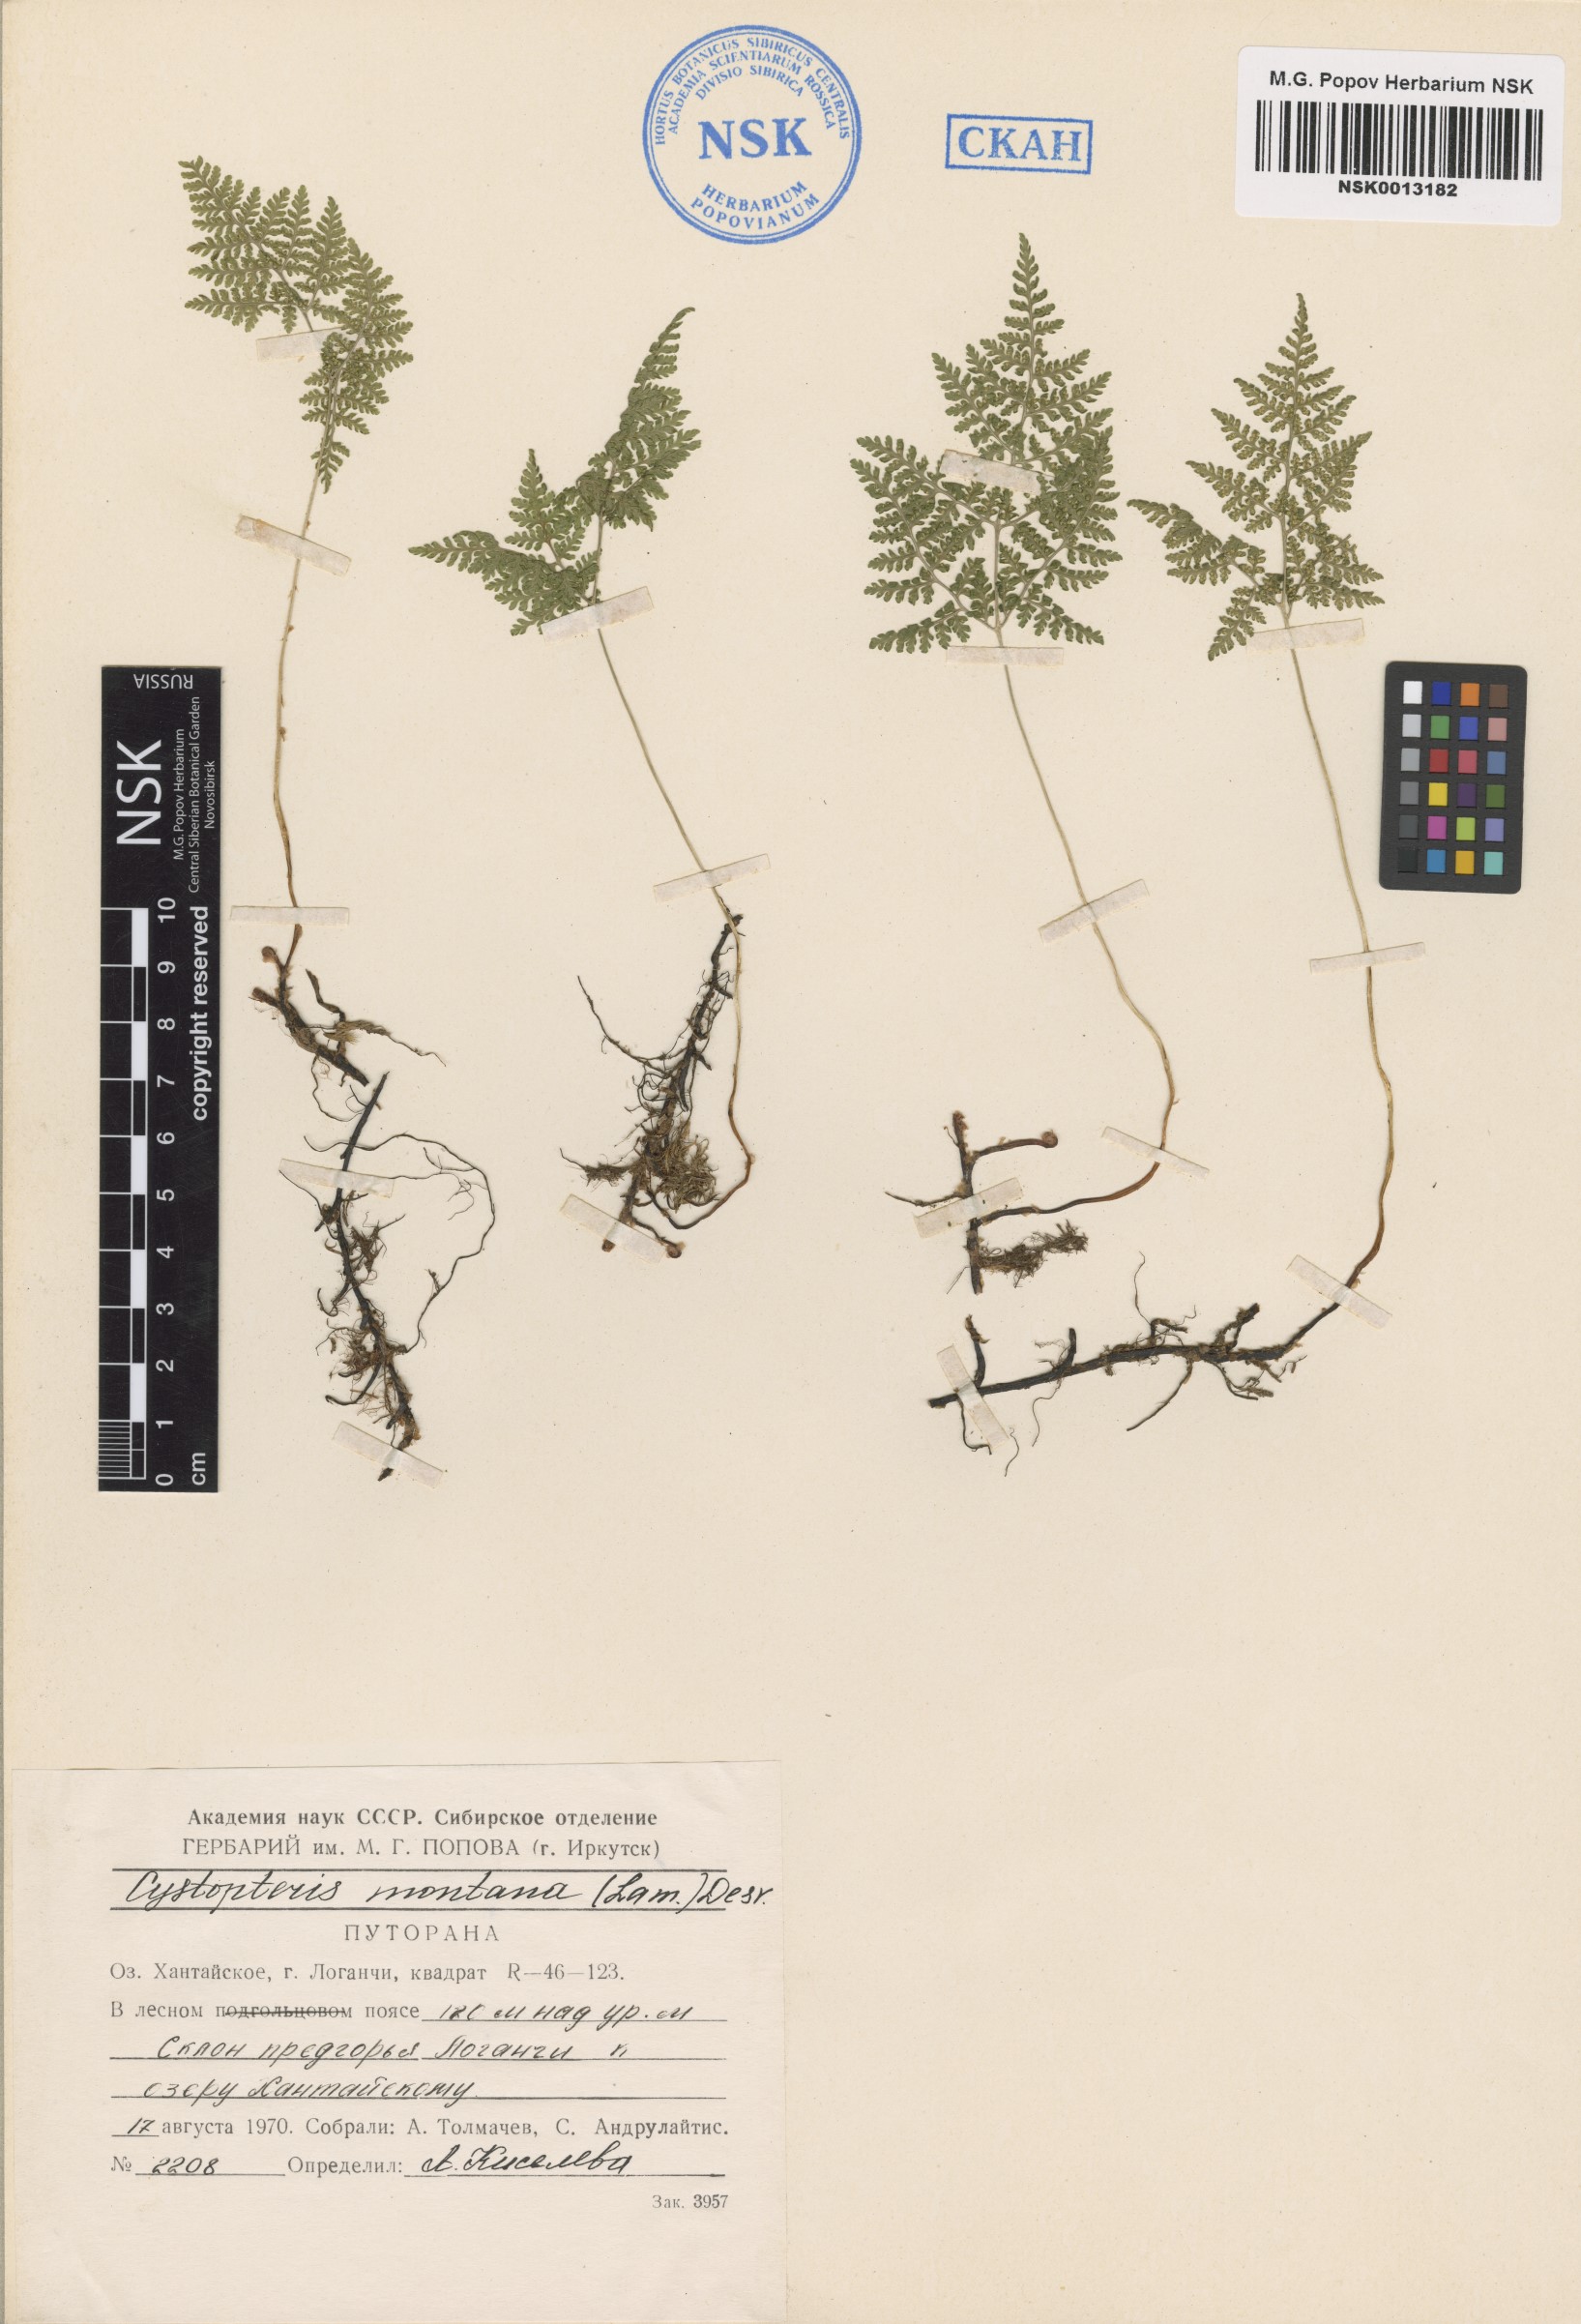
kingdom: Plantae
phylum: Tracheophyta
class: Polypodiopsida
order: Polypodiales
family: Cystopteridaceae
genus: Cystopteris
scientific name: Cystopteris montana
